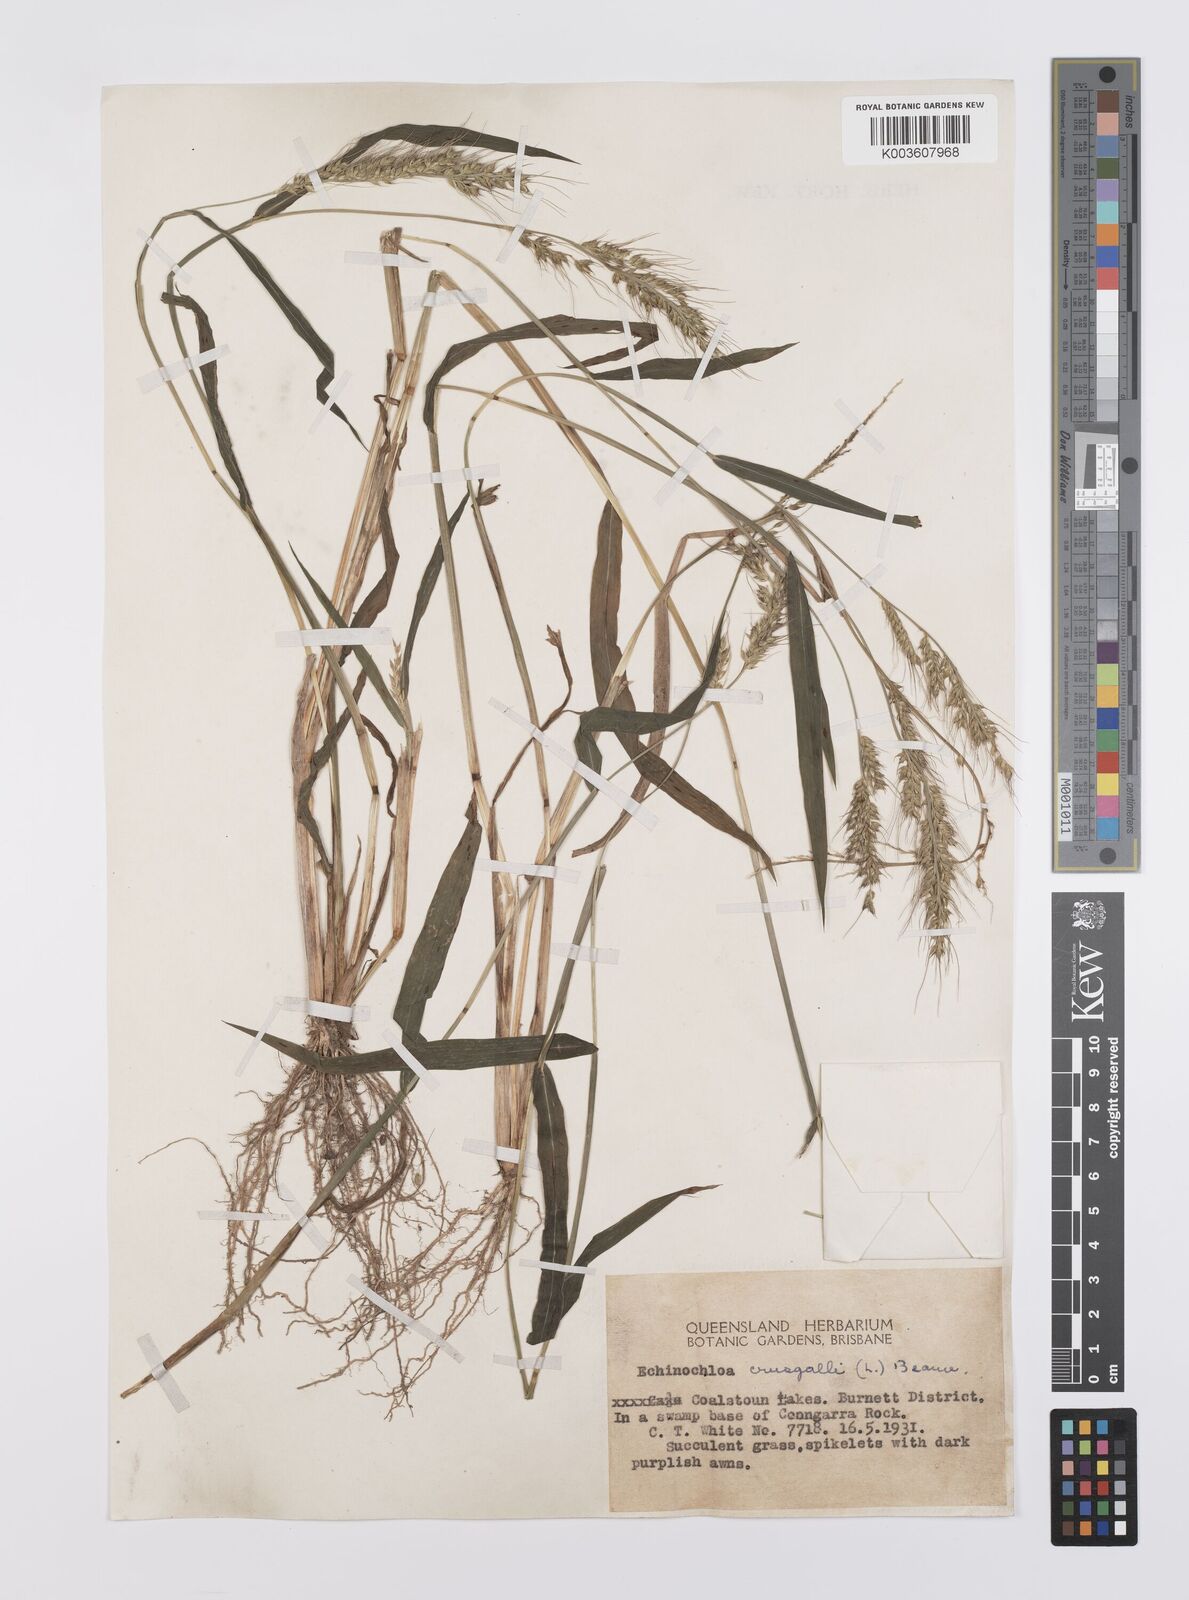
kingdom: Plantae
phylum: Tracheophyta
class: Liliopsida
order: Poales
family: Poaceae
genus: Echinochloa
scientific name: Echinochloa crus-galli
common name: Cockspur
